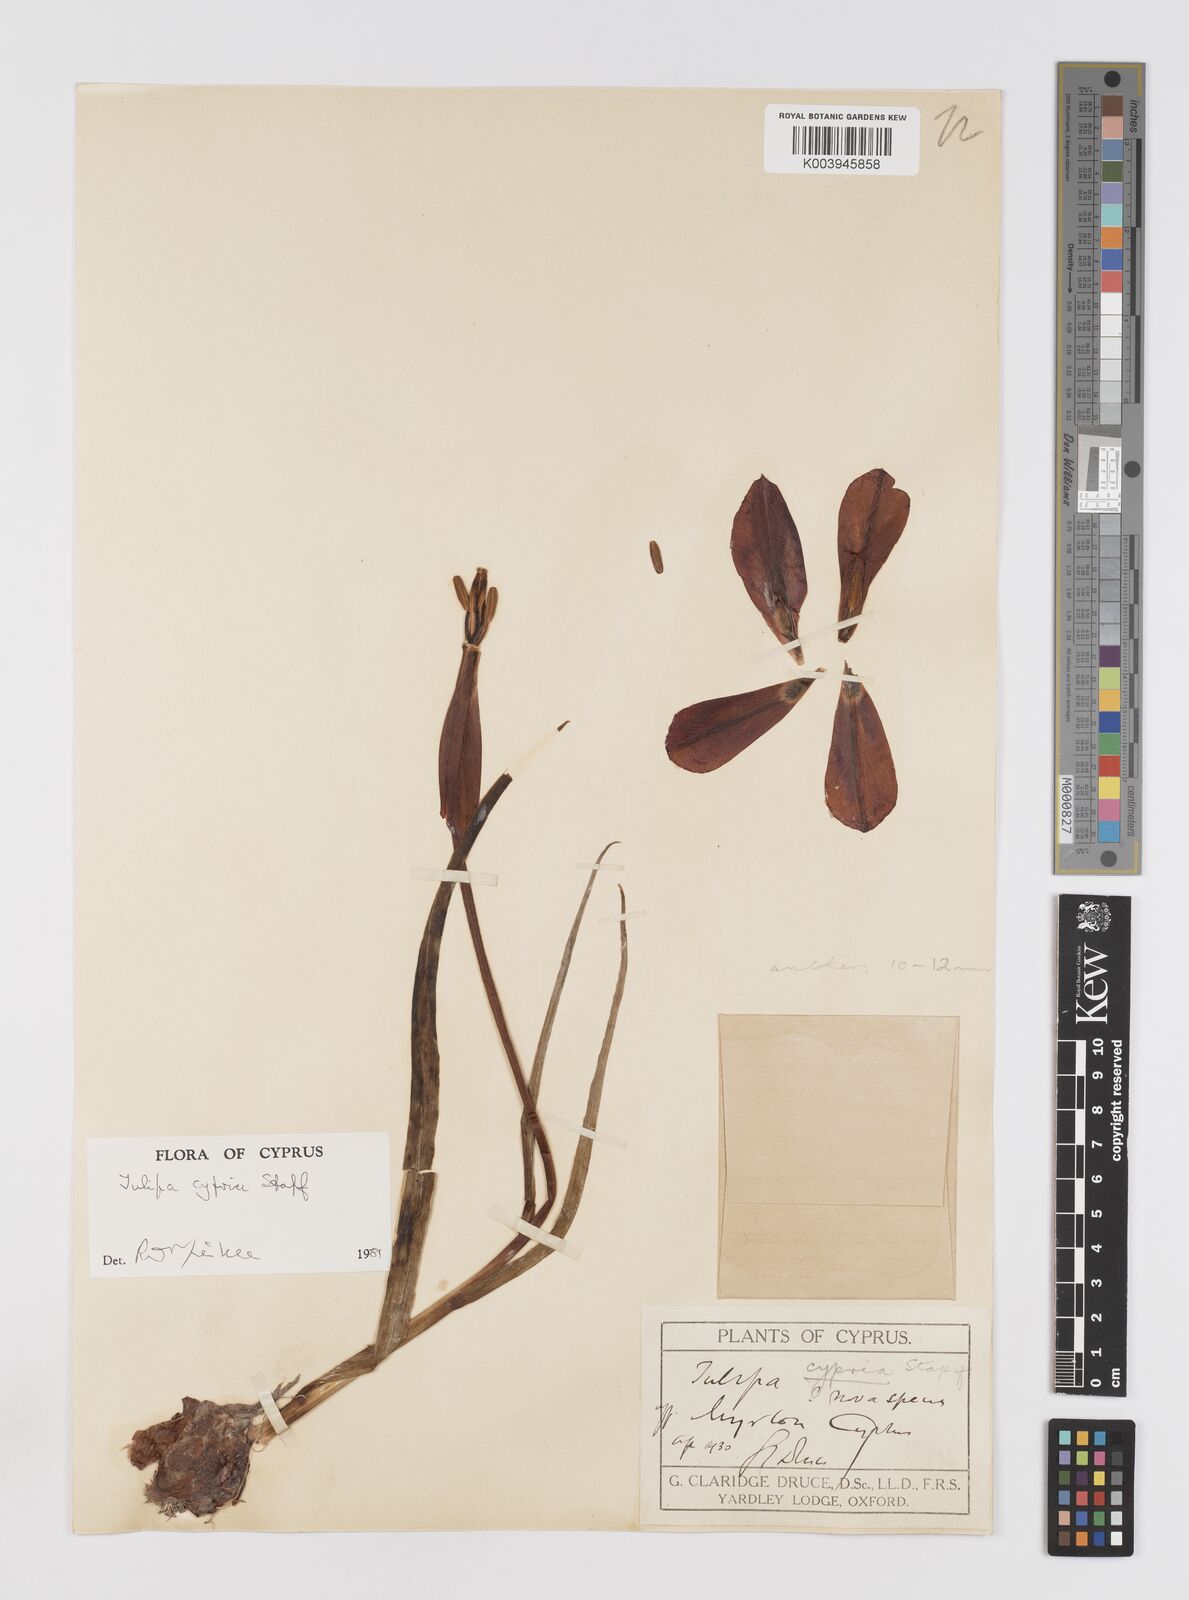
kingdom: Plantae
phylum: Tracheophyta
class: Liliopsida
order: Liliales
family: Liliaceae
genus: Tulipa
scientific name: Tulipa cypria
